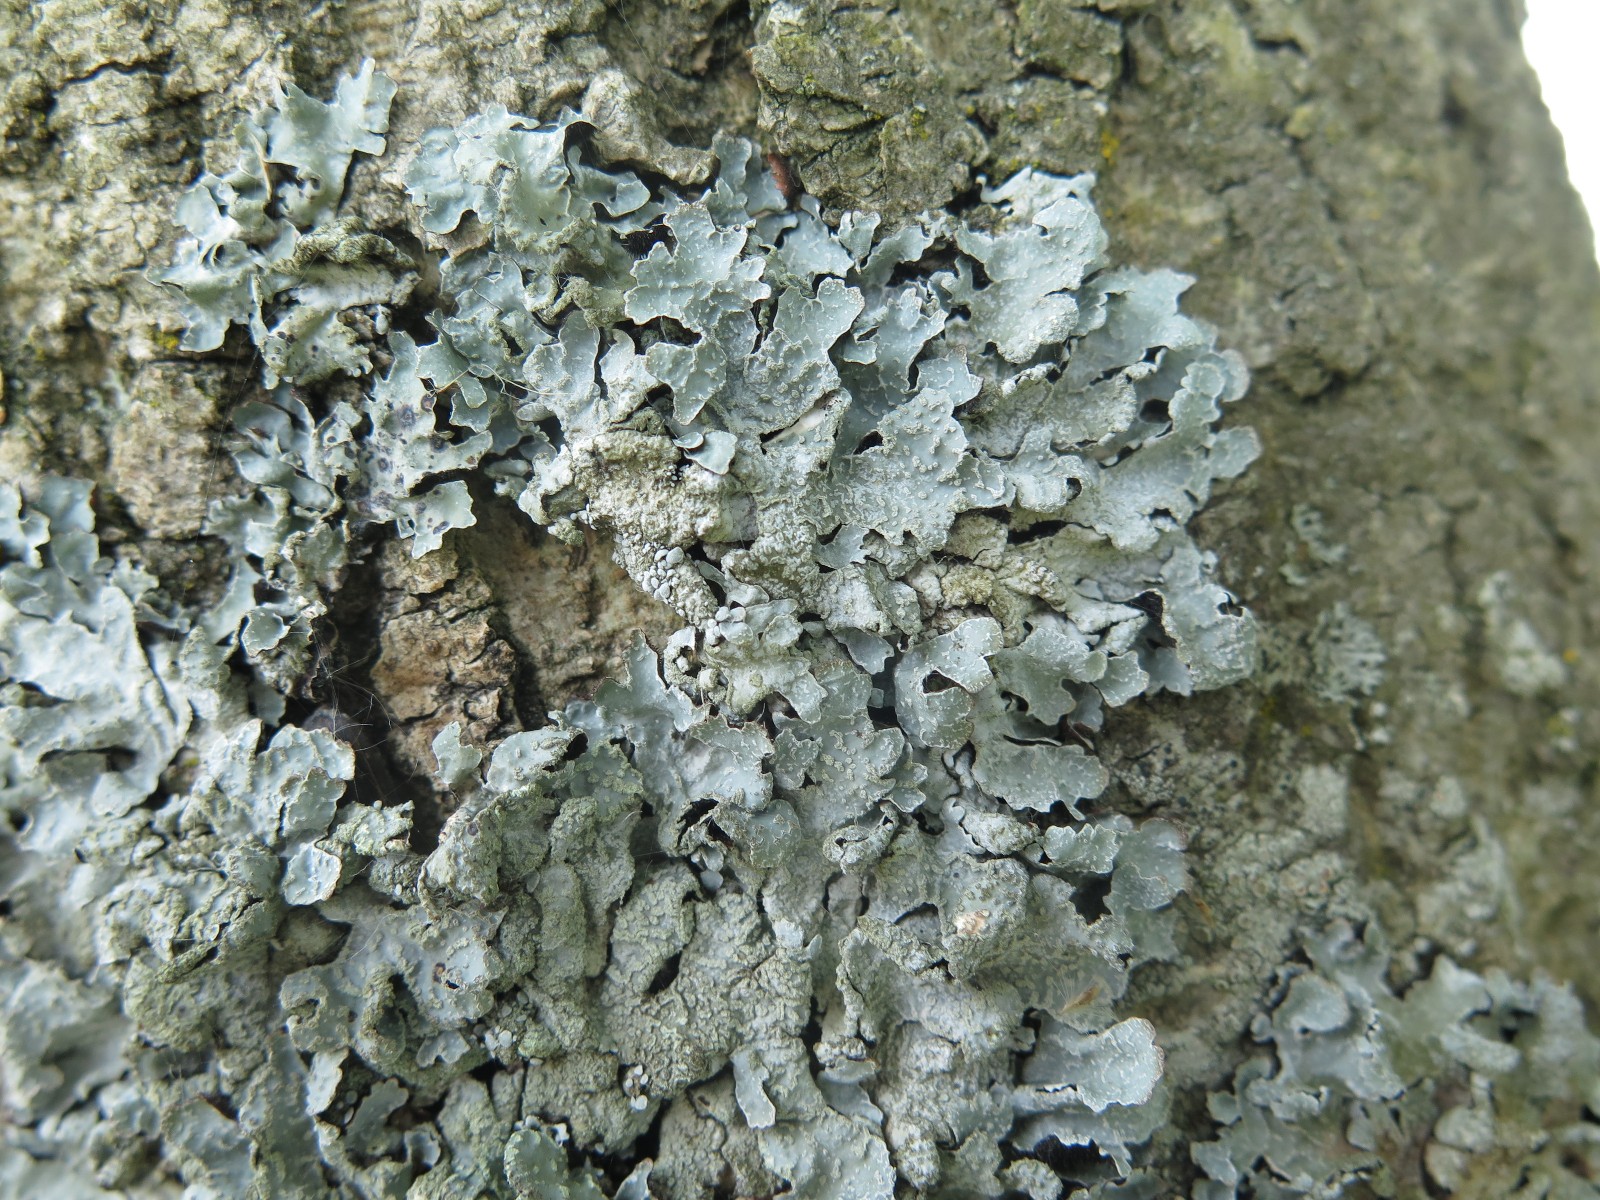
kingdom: Fungi
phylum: Ascomycota
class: Lecanoromycetes
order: Lecanorales
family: Parmeliaceae
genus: Parmelia
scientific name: Parmelia sulcata
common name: rynket skållav
